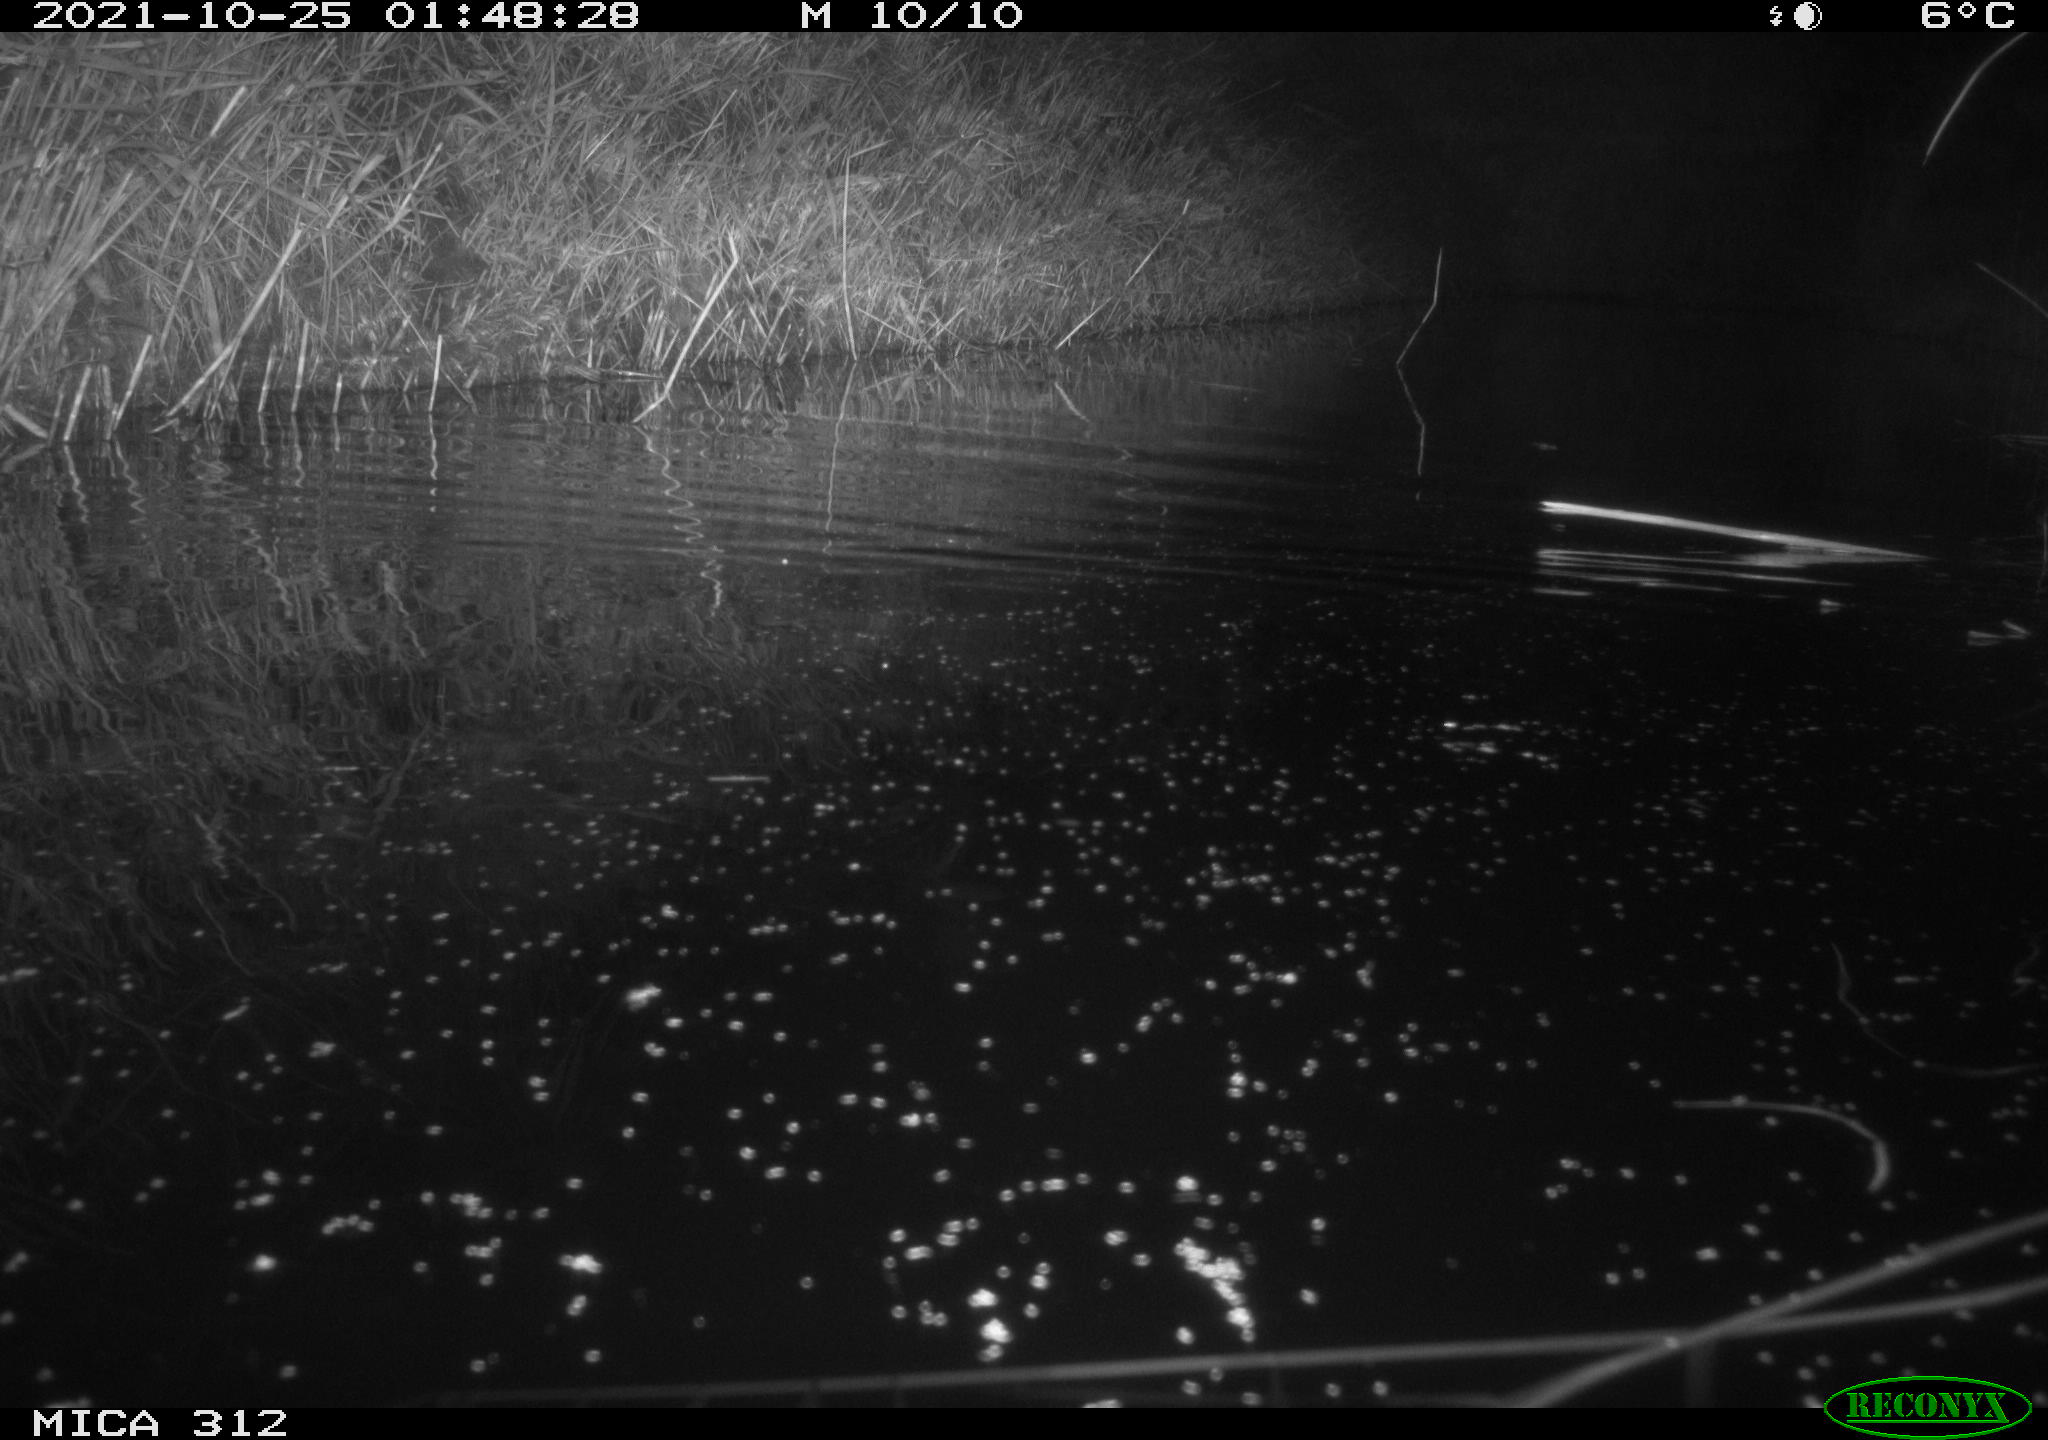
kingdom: Animalia
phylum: Chordata
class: Mammalia
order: Rodentia
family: Muridae
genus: Rattus
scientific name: Rattus norvegicus
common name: Brown rat
